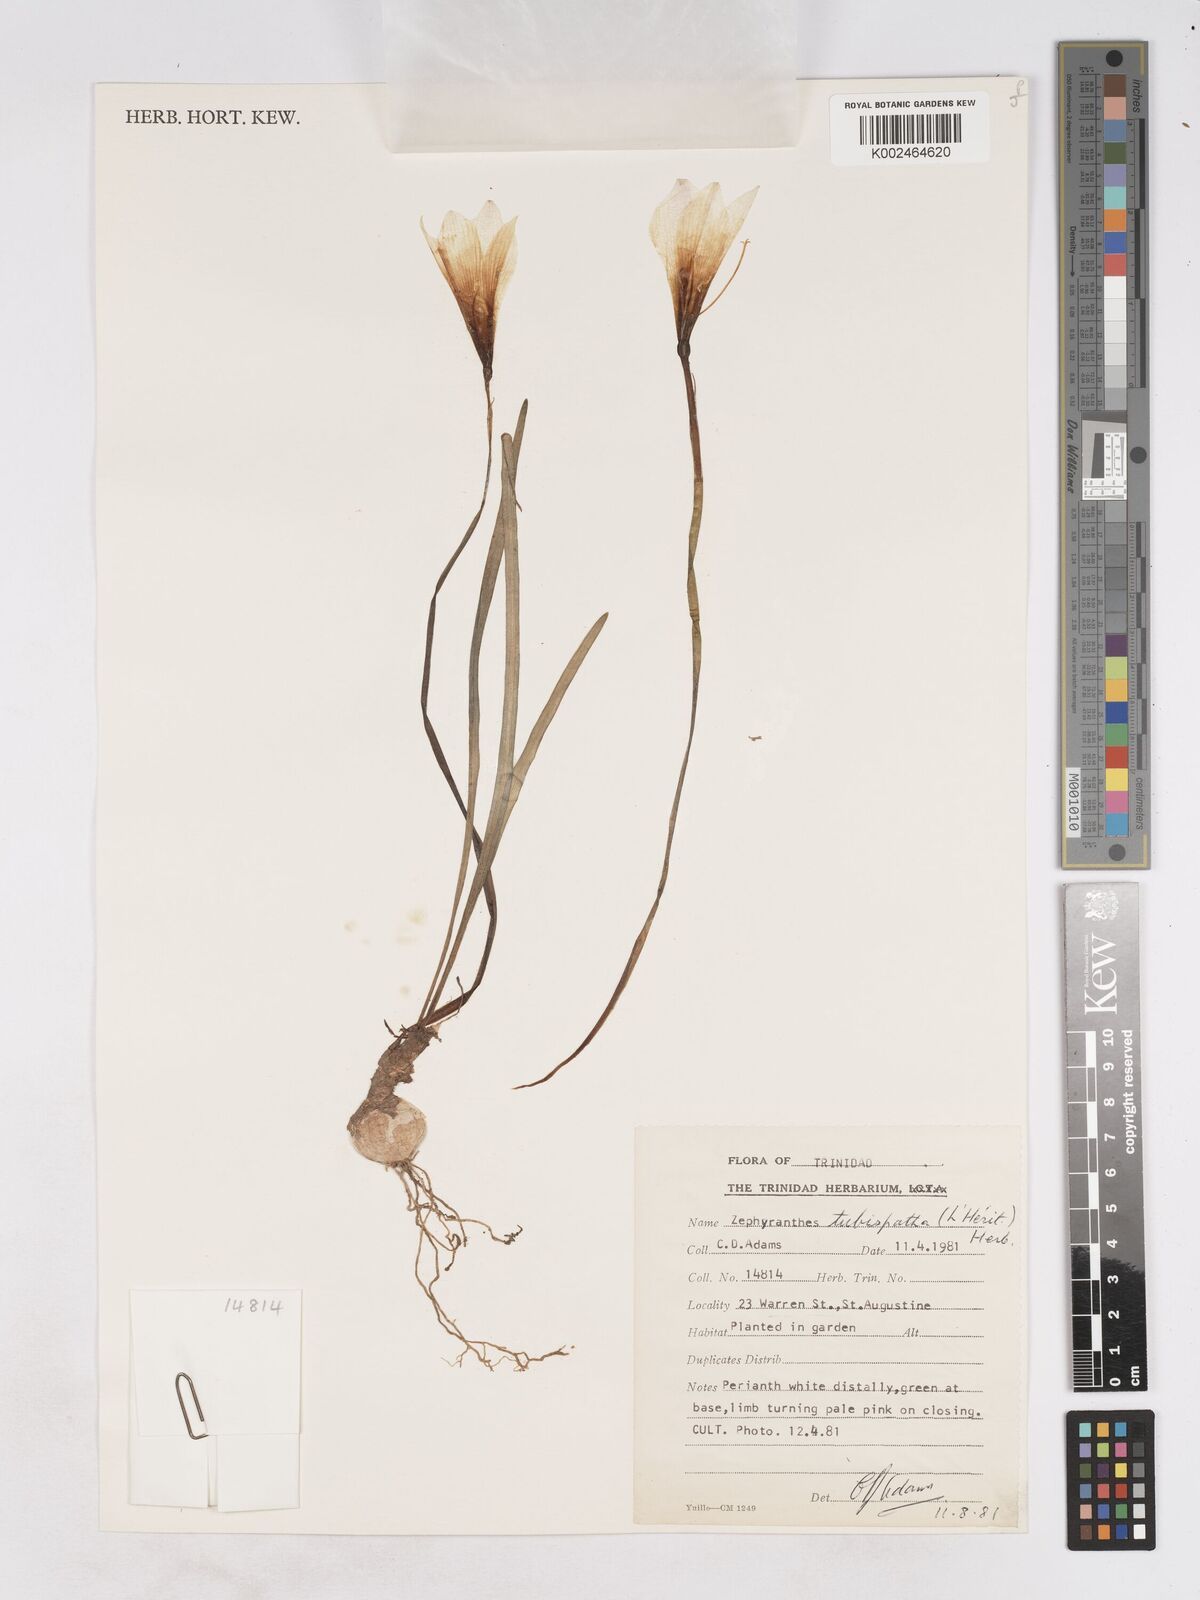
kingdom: Plantae
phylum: Tracheophyta
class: Liliopsida
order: Asparagales
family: Amaryllidaceae
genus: Zephyranthes
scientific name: Zephyranthes tubispatha
